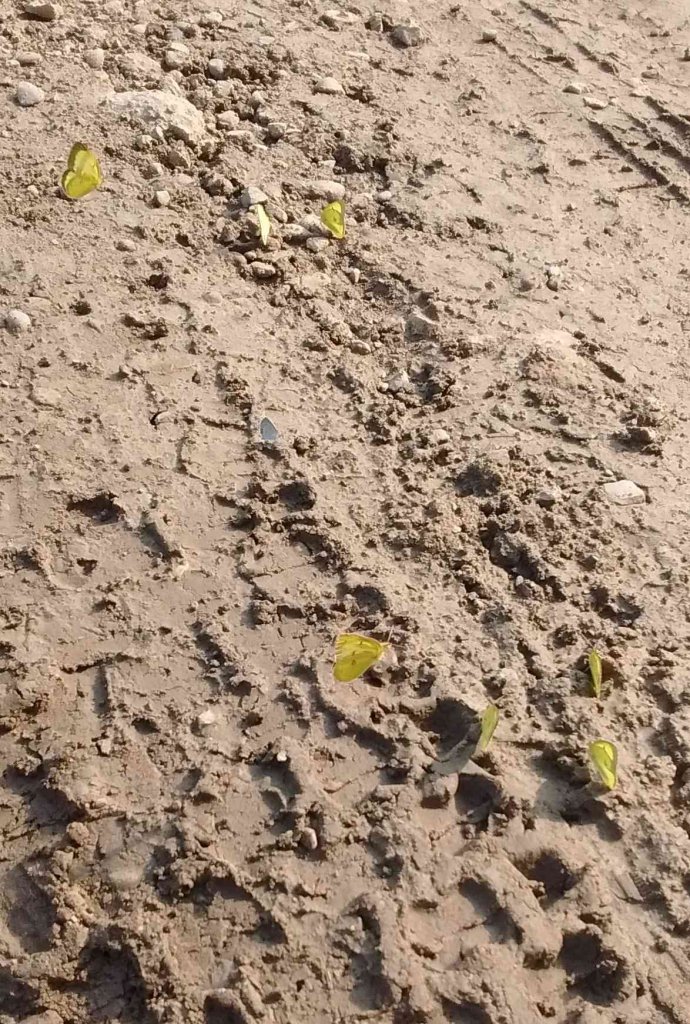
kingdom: Animalia
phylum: Arthropoda
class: Insecta
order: Lepidoptera
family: Pieridae
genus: Colias
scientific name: Colias philodice
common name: Clouded Sulphur
